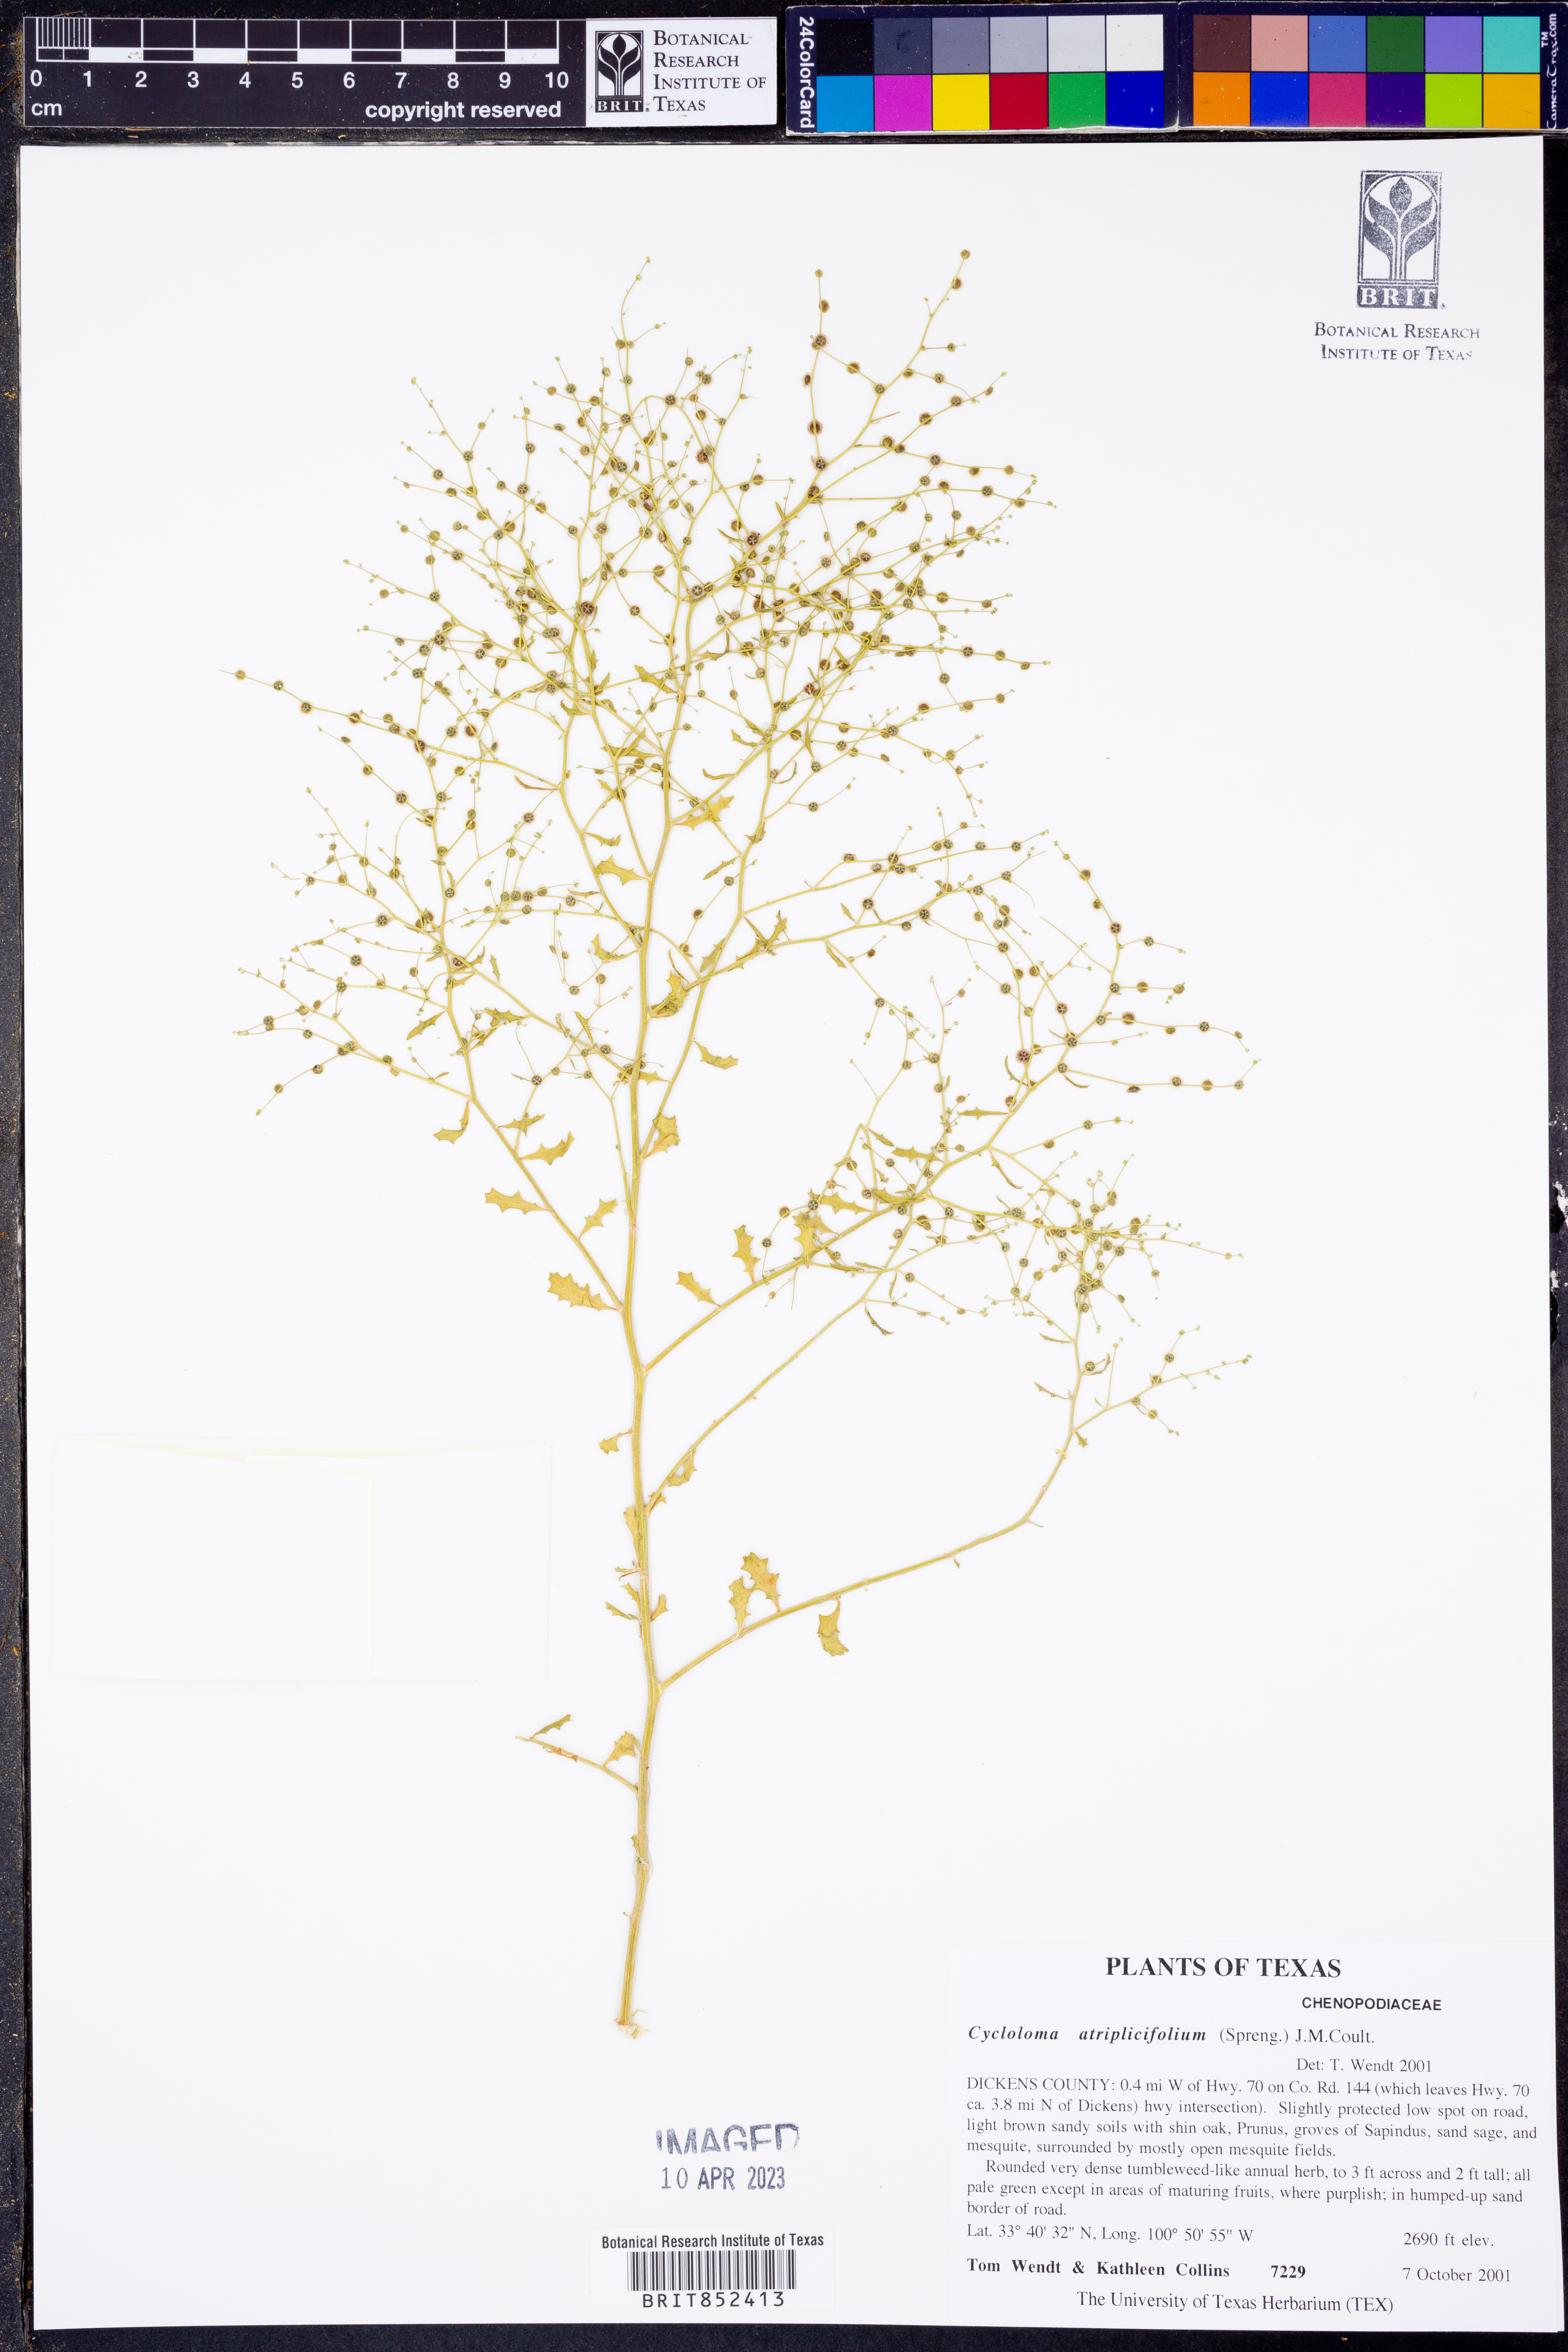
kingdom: Plantae
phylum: Tracheophyta
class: Magnoliopsida
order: Caryophyllales
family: Amaranthaceae
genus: Dysphania
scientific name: Dysphania atriplicifolia
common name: Plains tumbleweed
